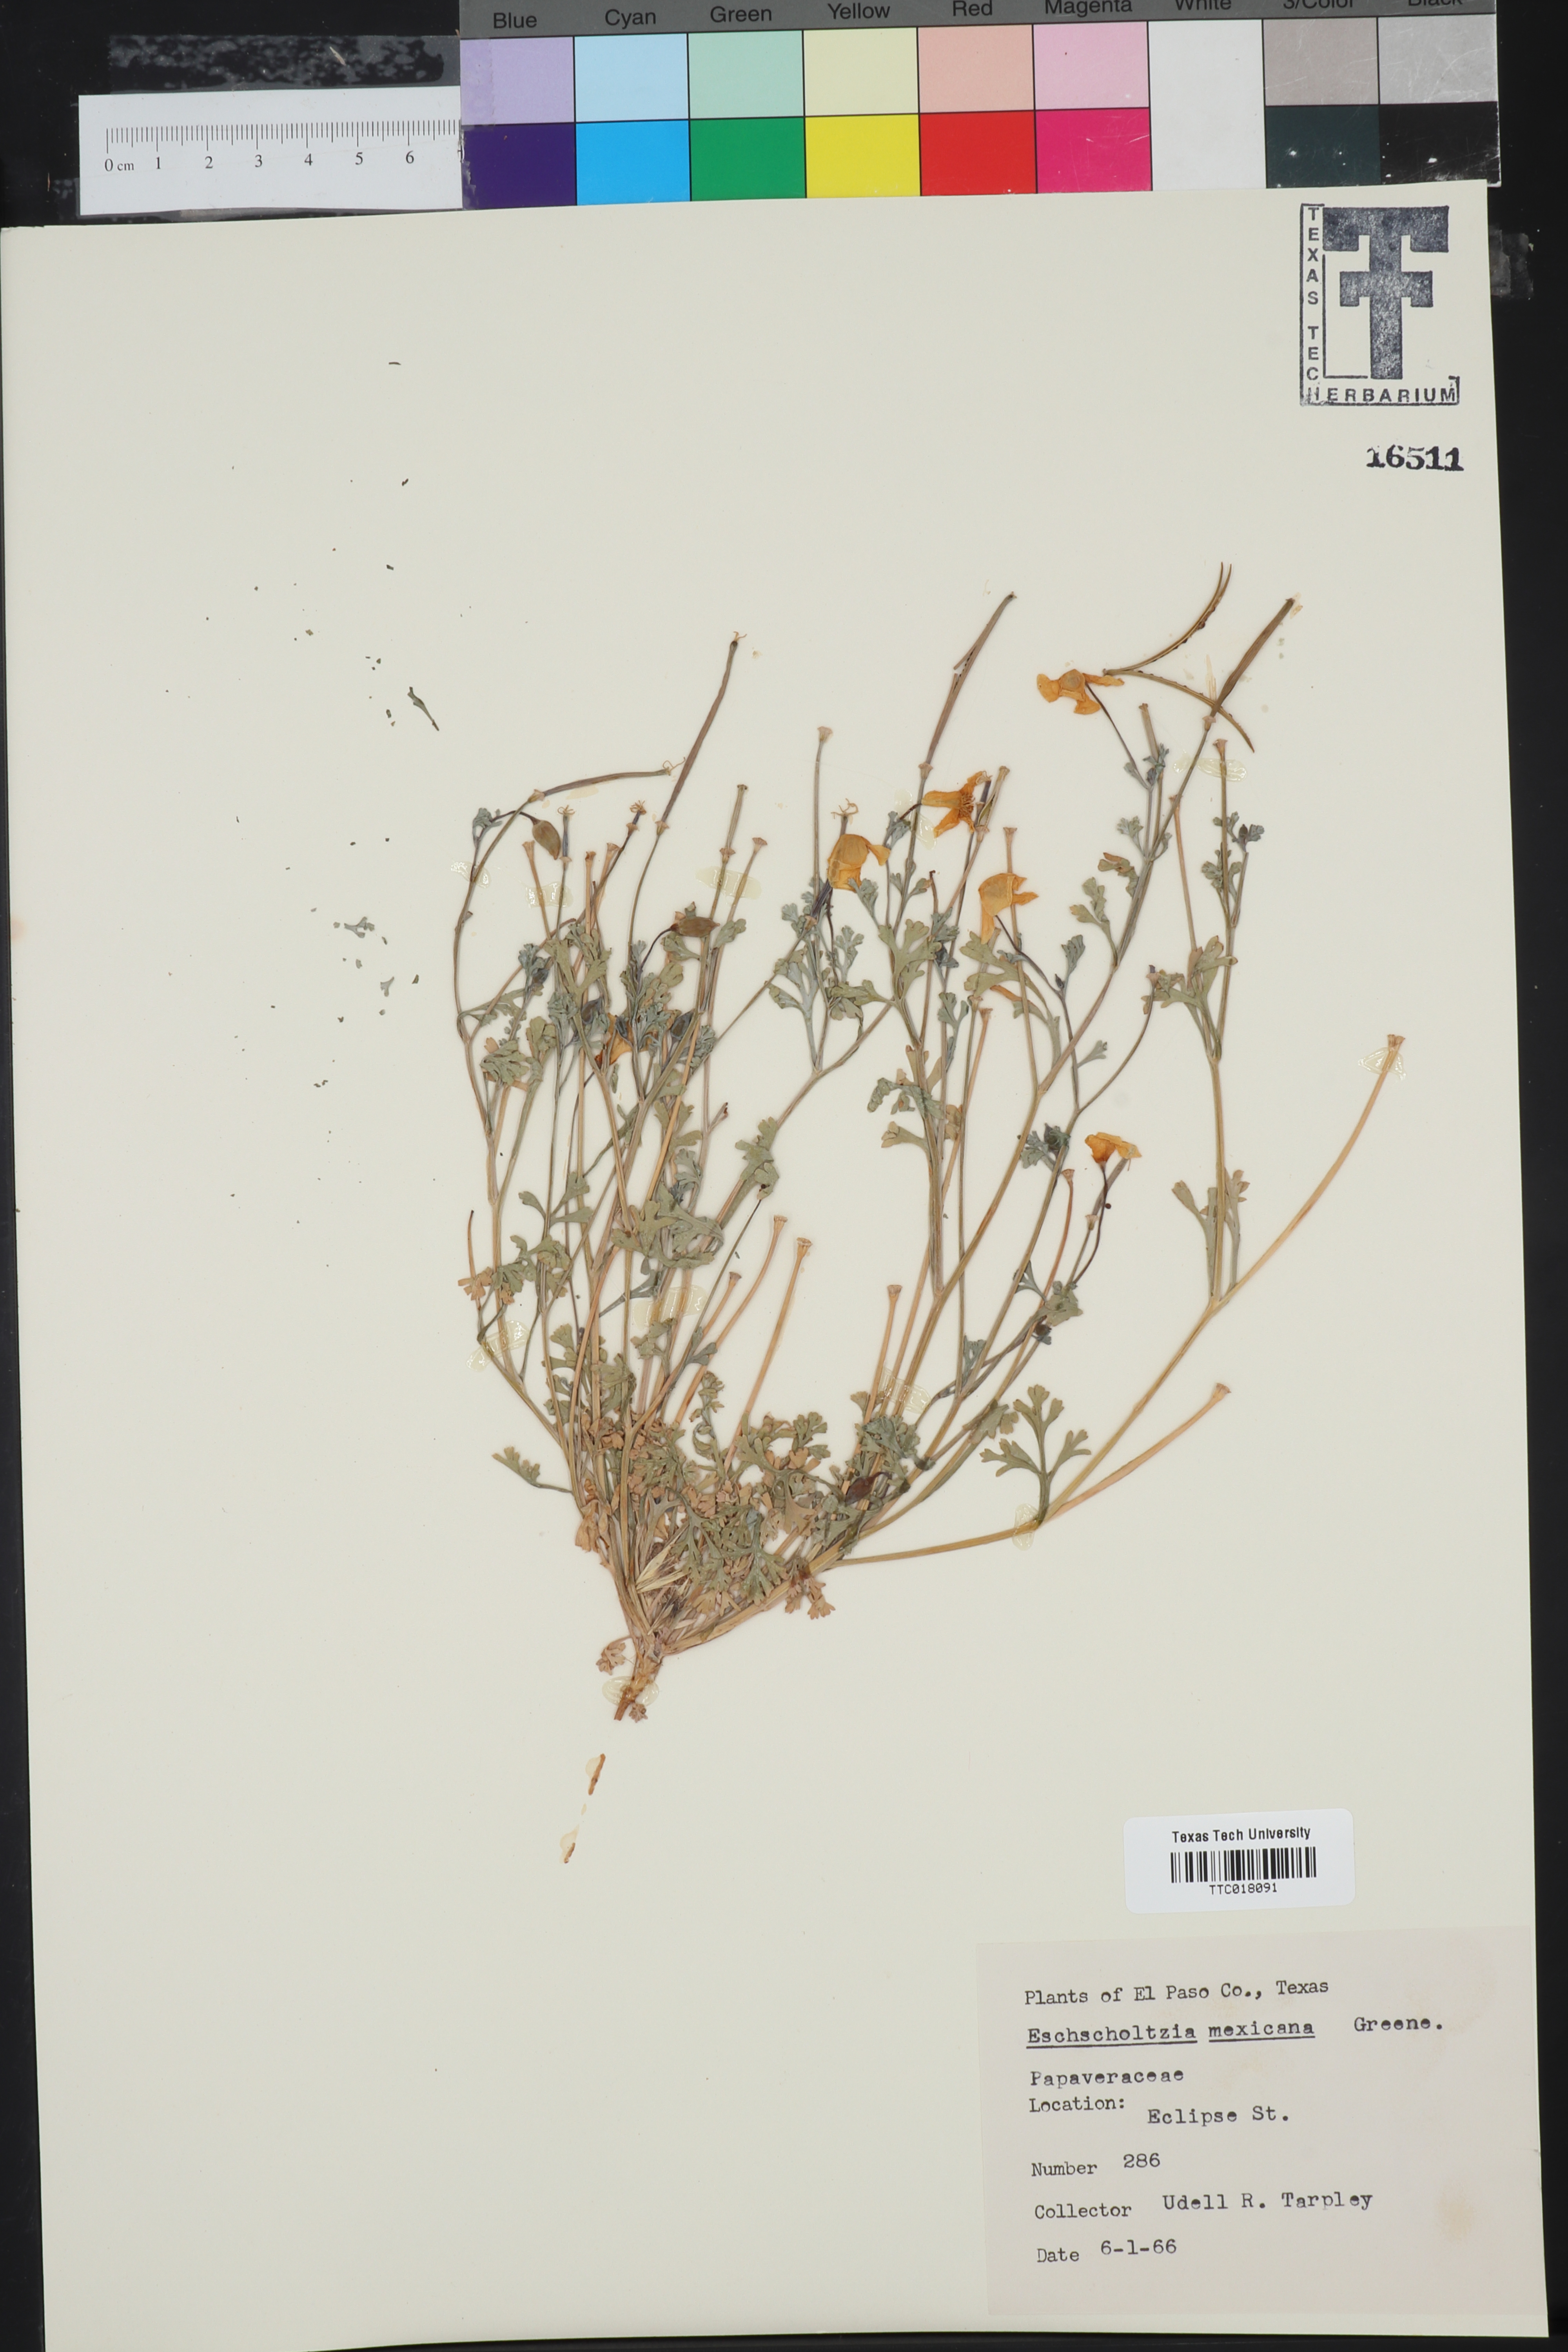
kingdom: Plantae
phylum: Tracheophyta
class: Magnoliopsida
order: Ranunculales
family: Papaveraceae
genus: Eschscholzia
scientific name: Eschscholzia californica
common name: California poppy
